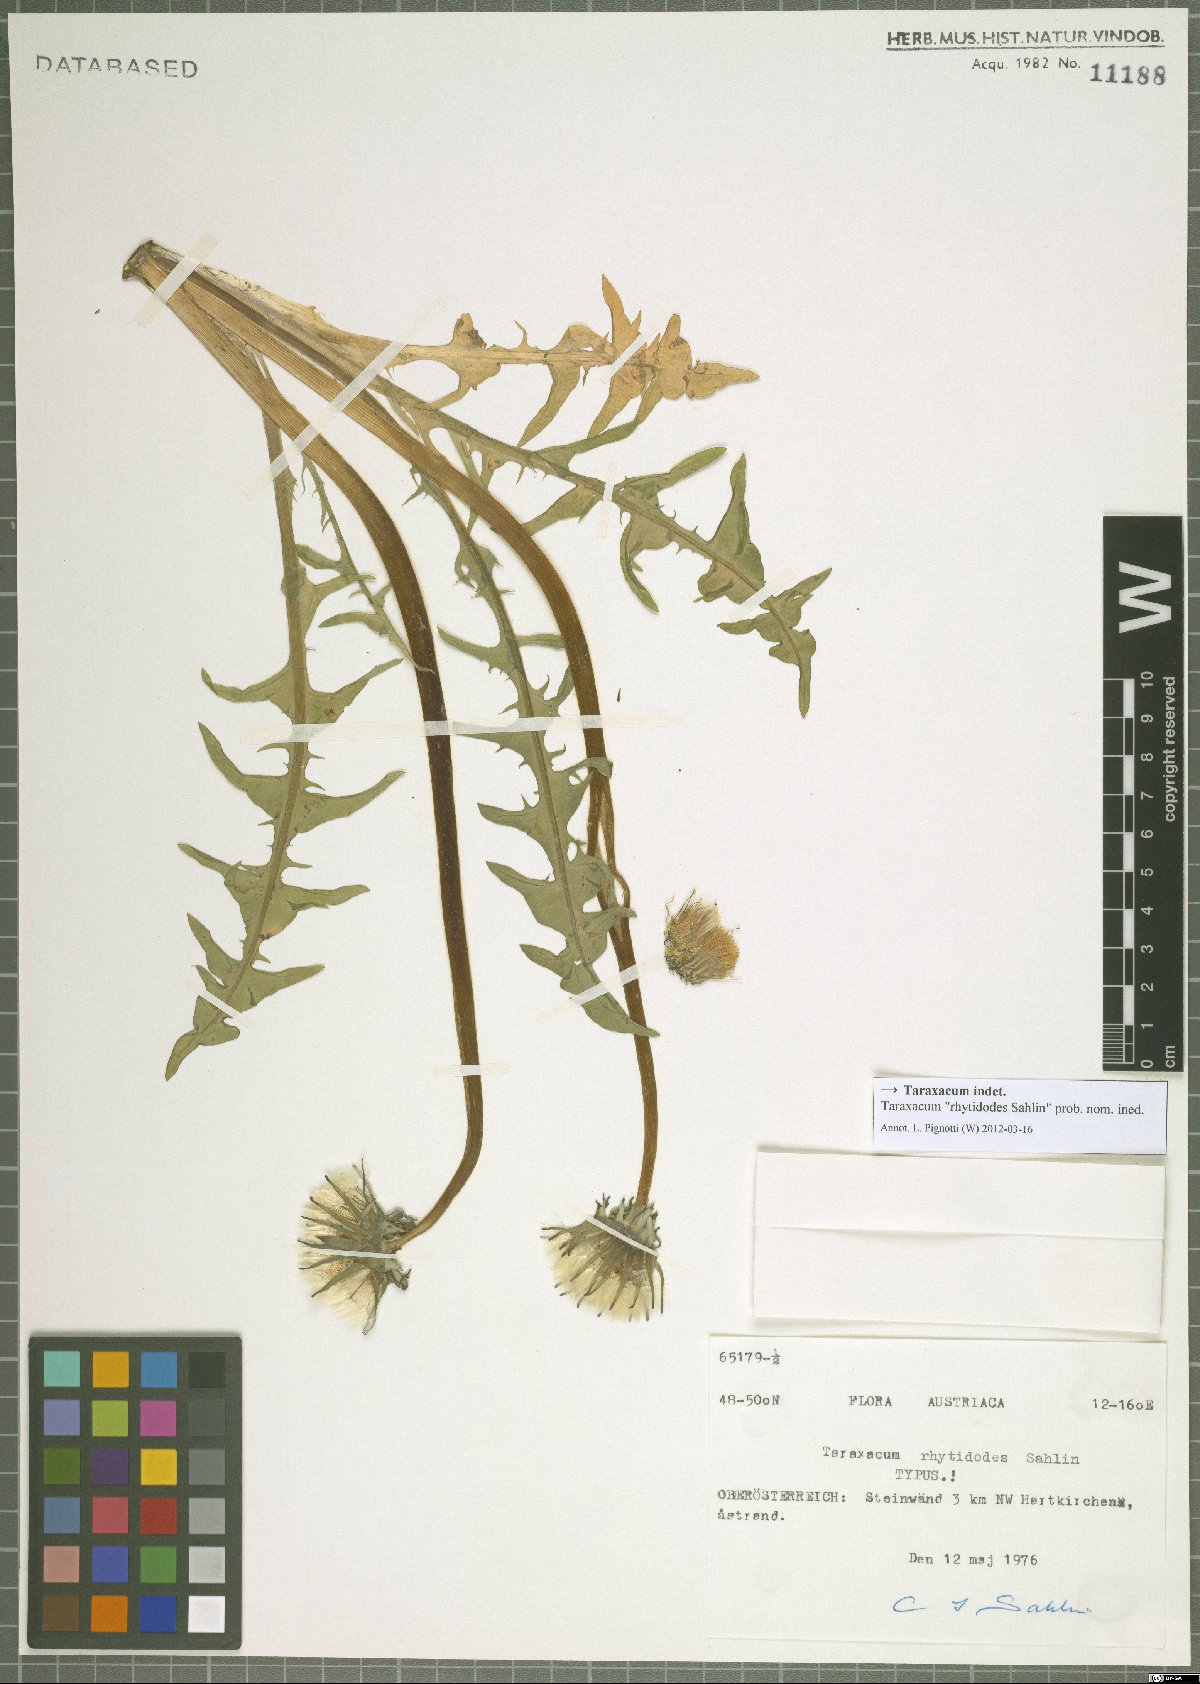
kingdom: Plantae
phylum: Tracheophyta
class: Magnoliopsida
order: Asterales
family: Asteraceae
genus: Taraxacum
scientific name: Taraxacum
